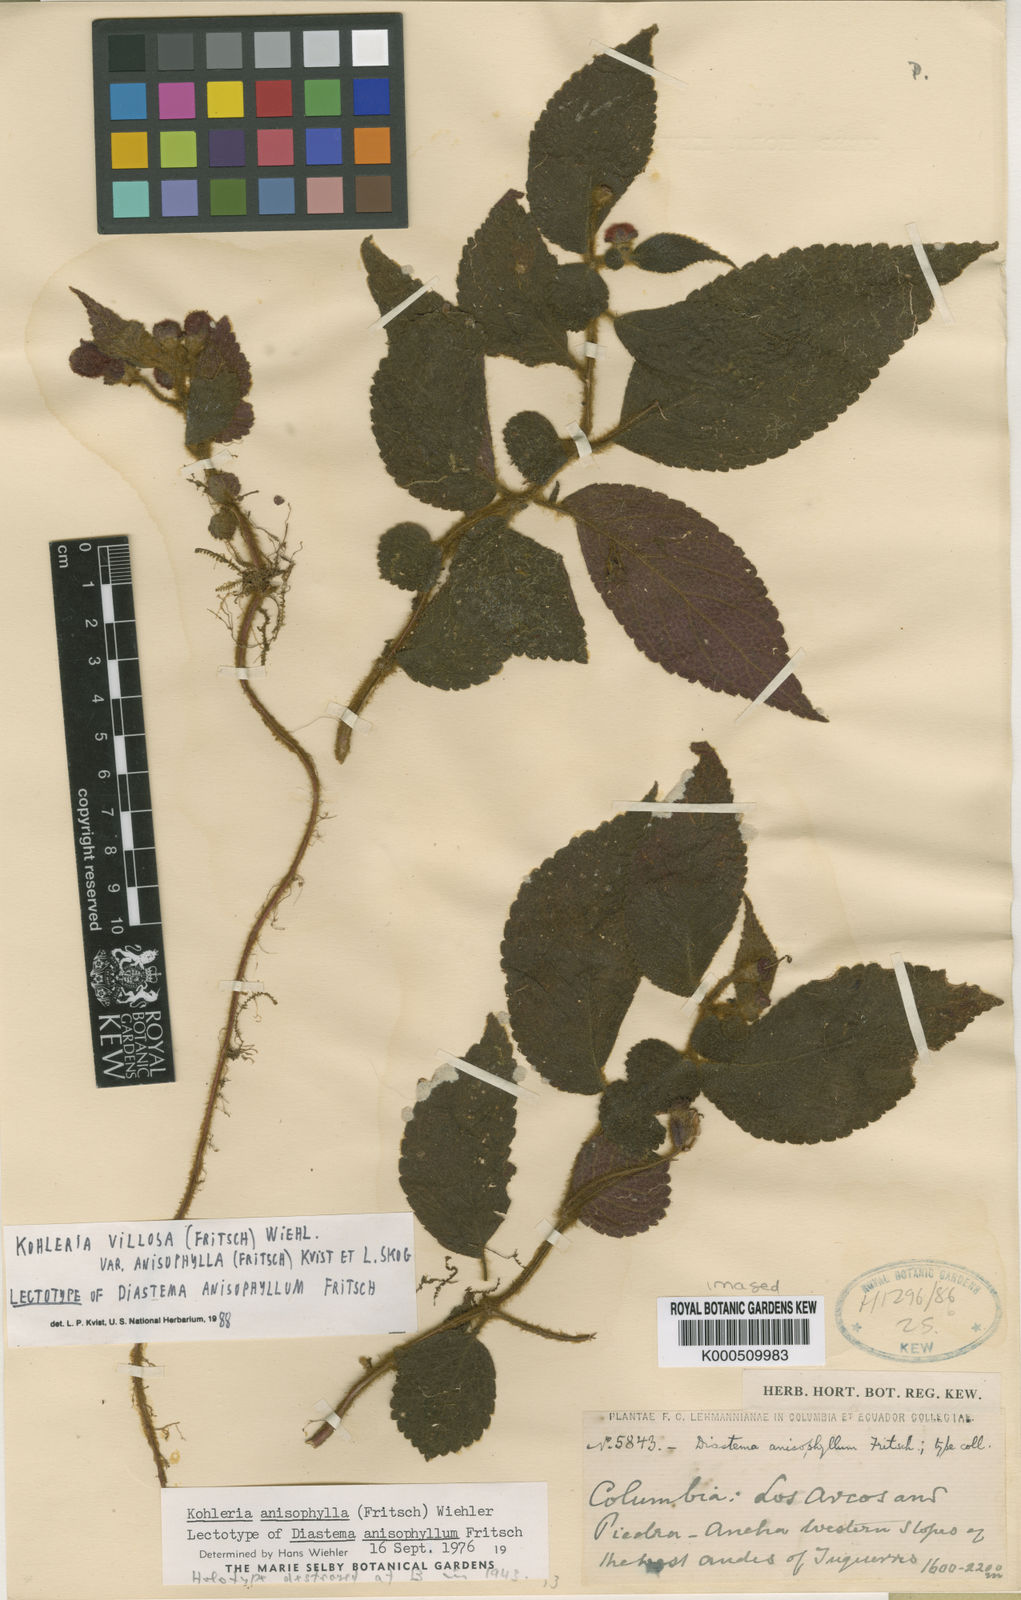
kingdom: Plantae
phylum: Tracheophyta
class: Magnoliopsida
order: Lamiales
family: Gesneriaceae
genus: Kohleria
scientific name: Kohleria villosa
